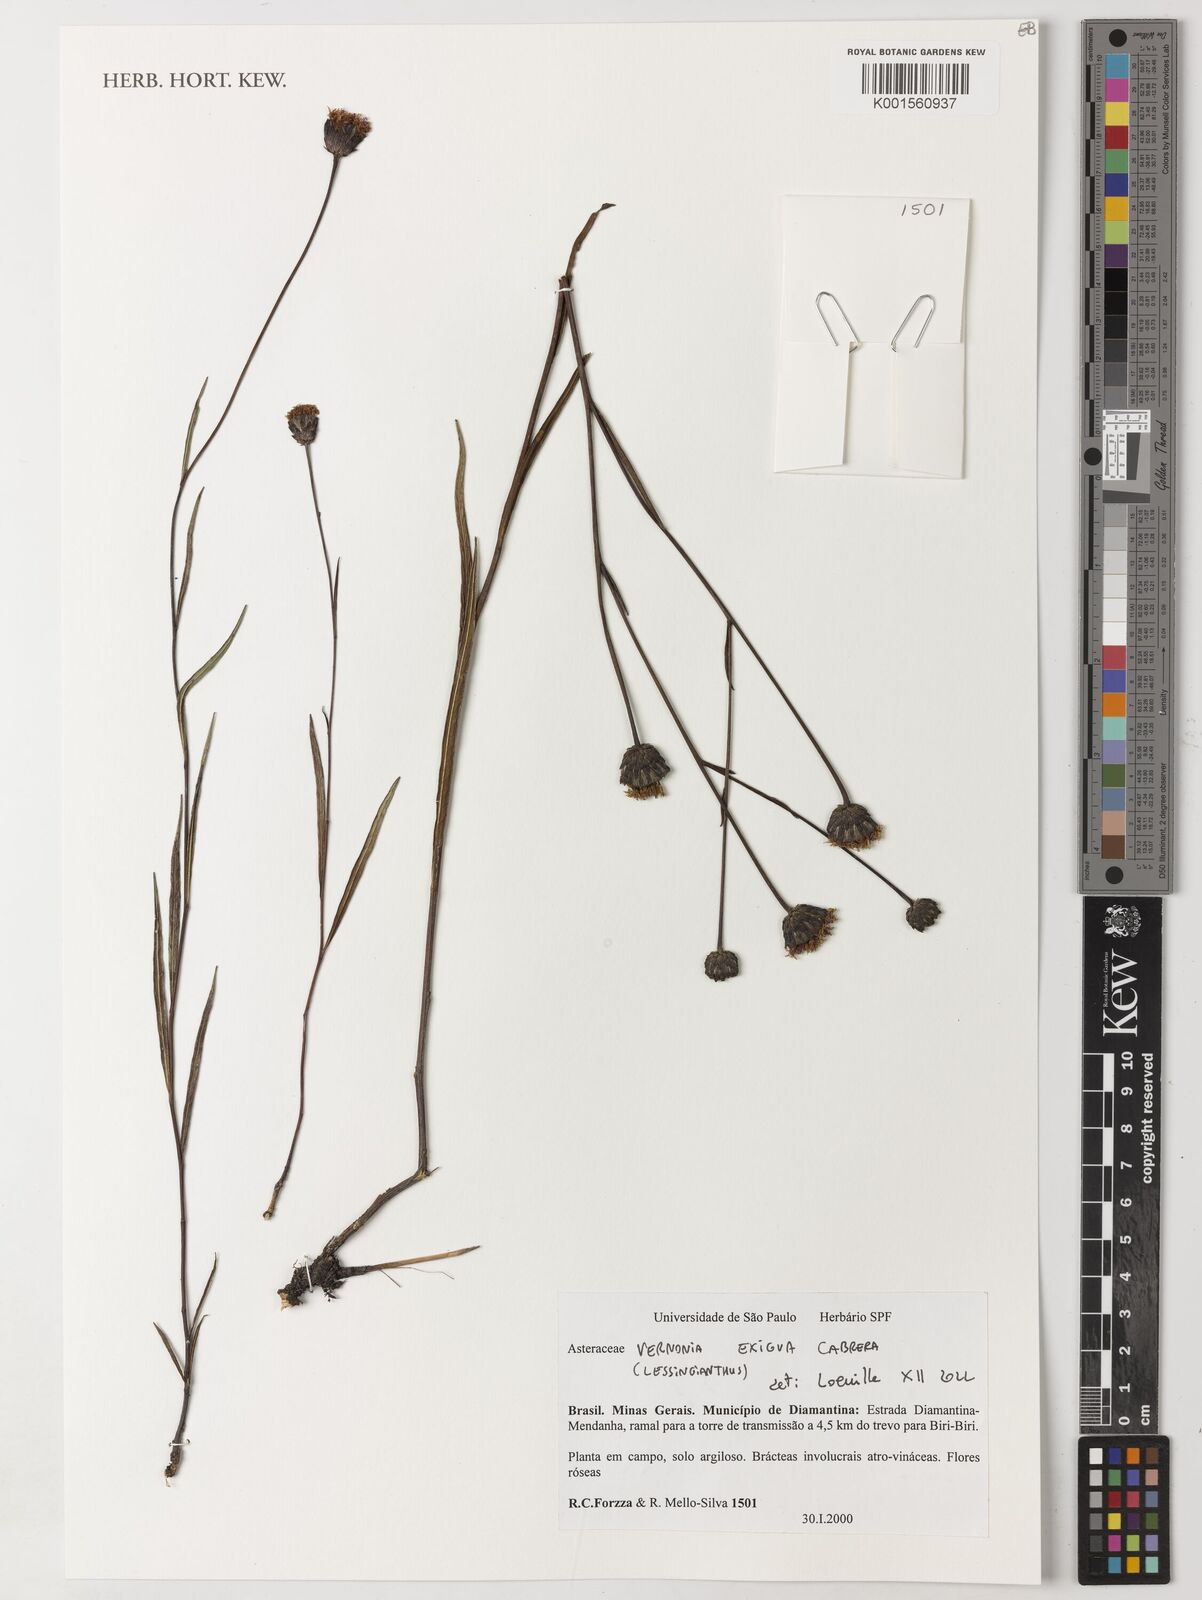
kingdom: Plantae
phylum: Tracheophyta
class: Magnoliopsida
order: Asterales
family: Asteraceae
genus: Lessingianthus
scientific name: Lessingianthus exiguus
